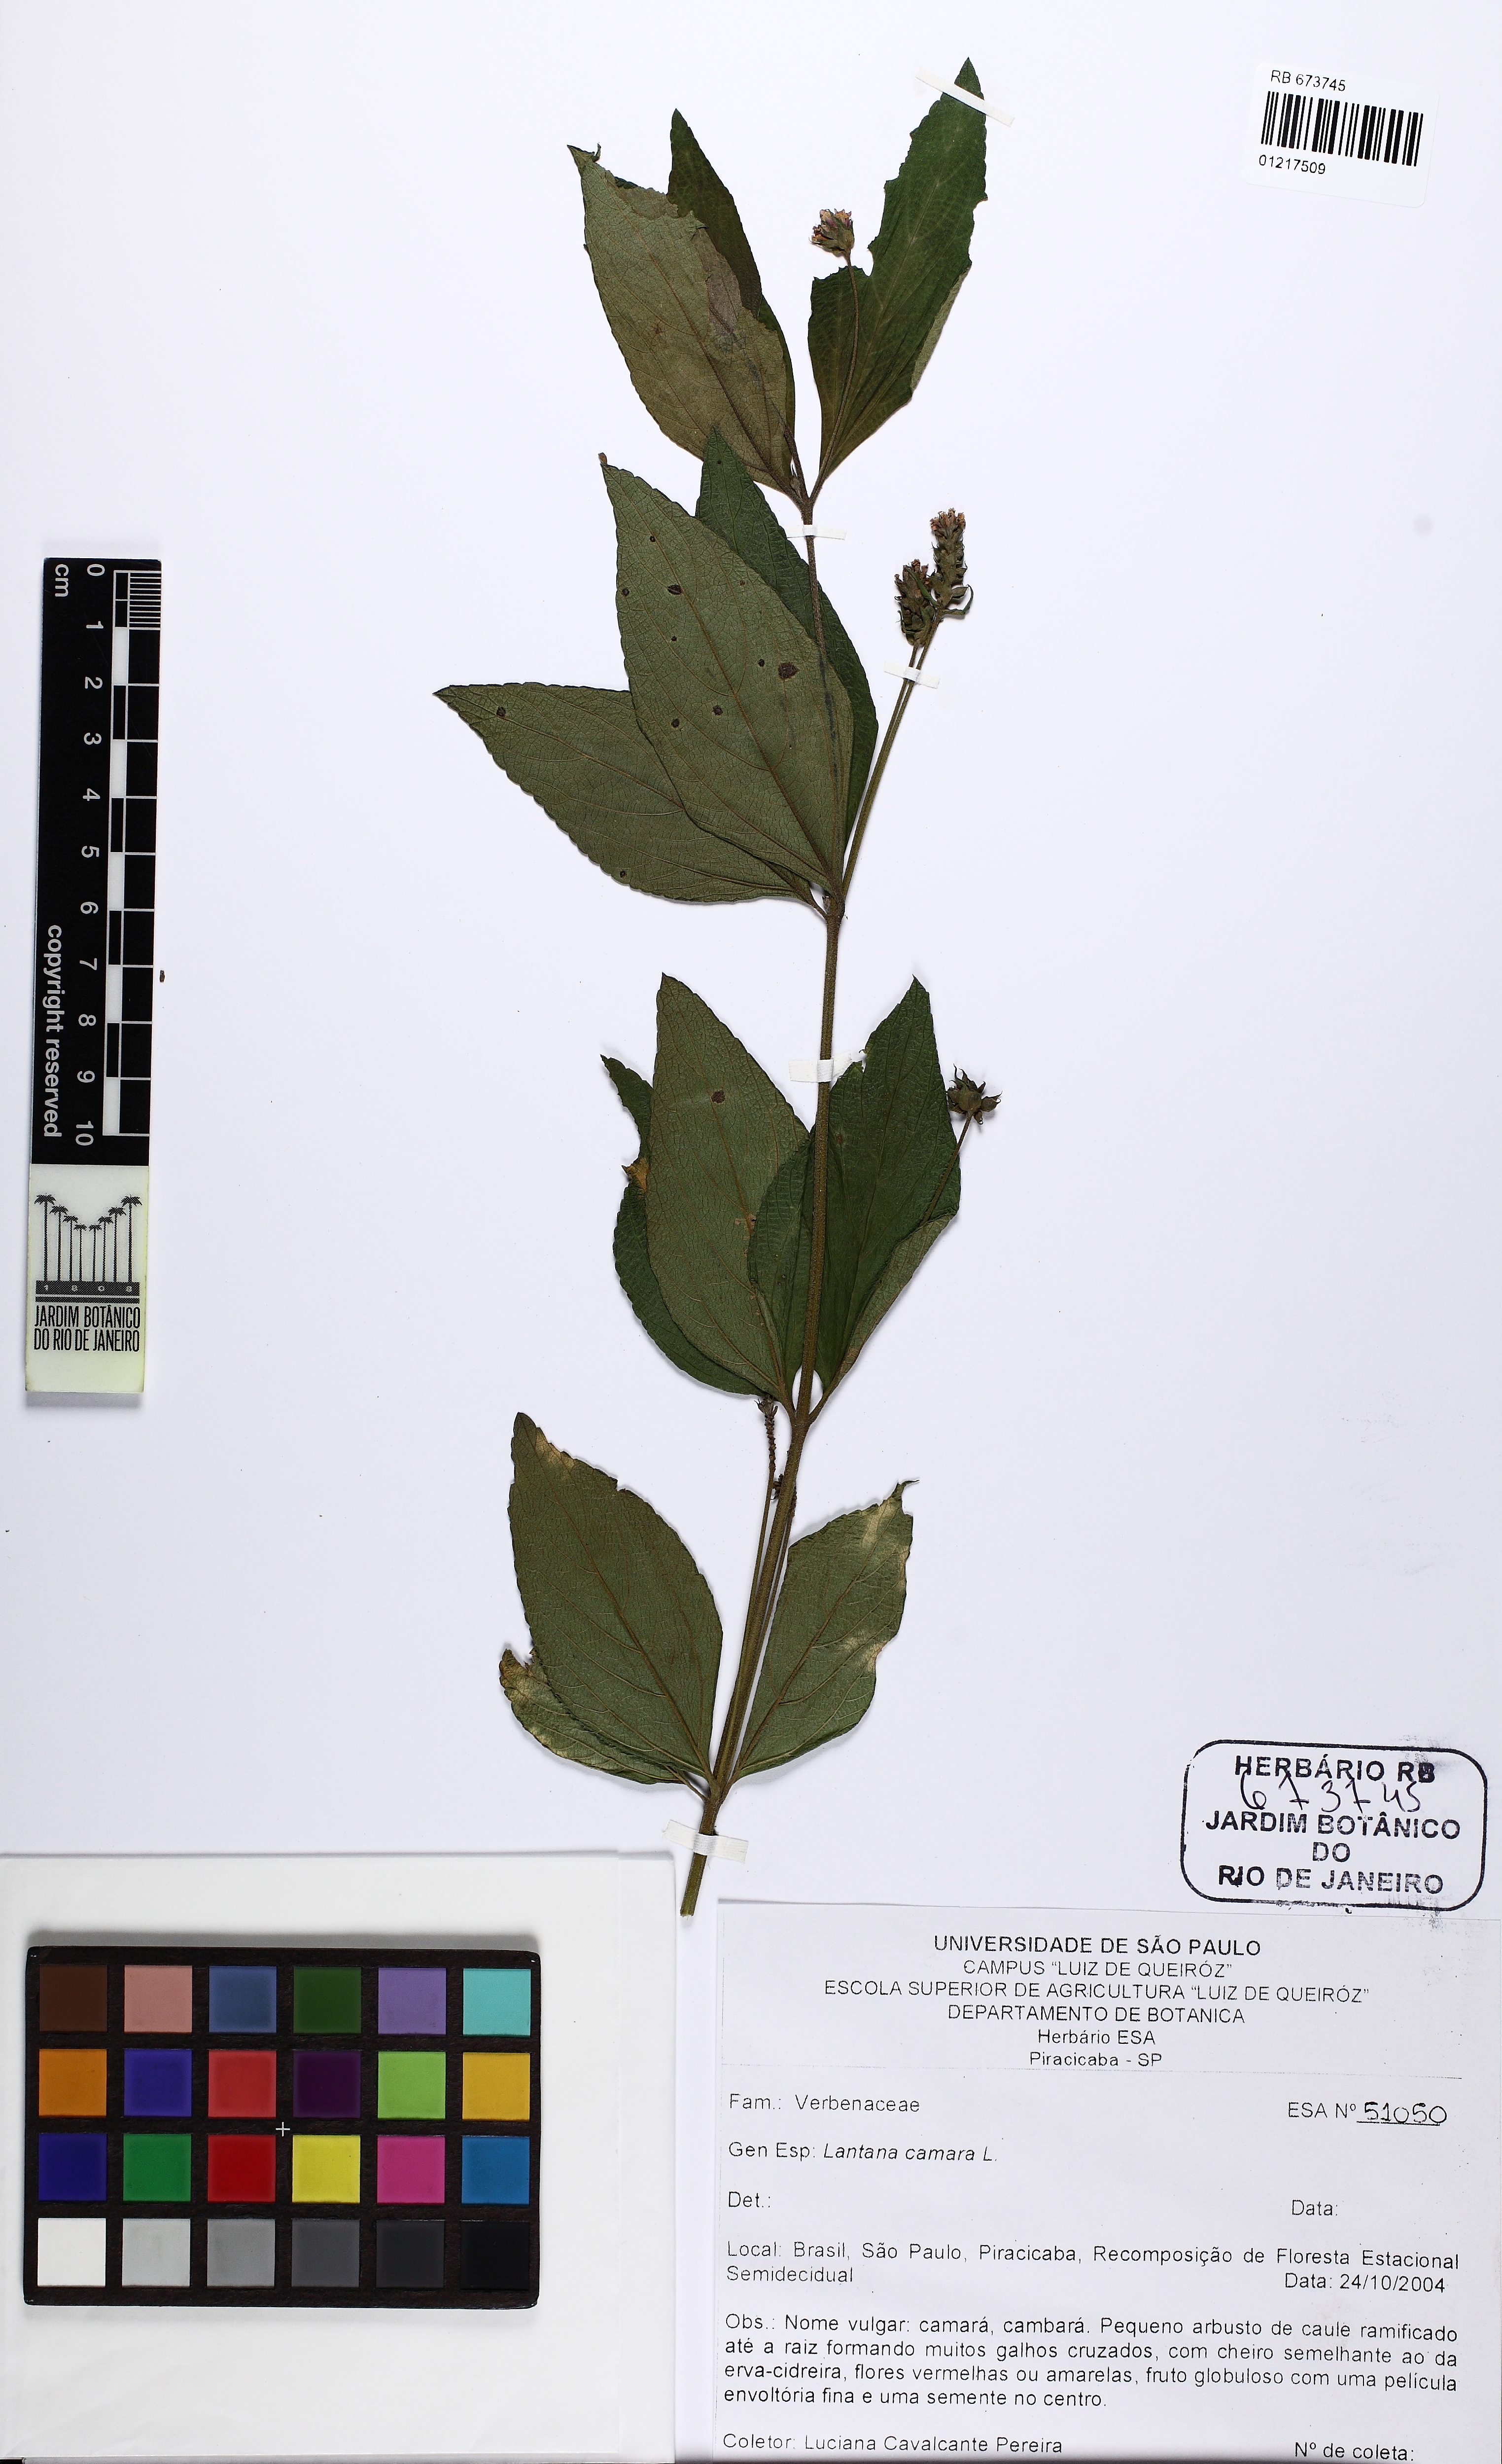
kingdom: Plantae
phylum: Tracheophyta
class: Magnoliopsida
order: Lamiales
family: Verbenaceae
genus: Lantana
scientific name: Lantana camara
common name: Lantana
